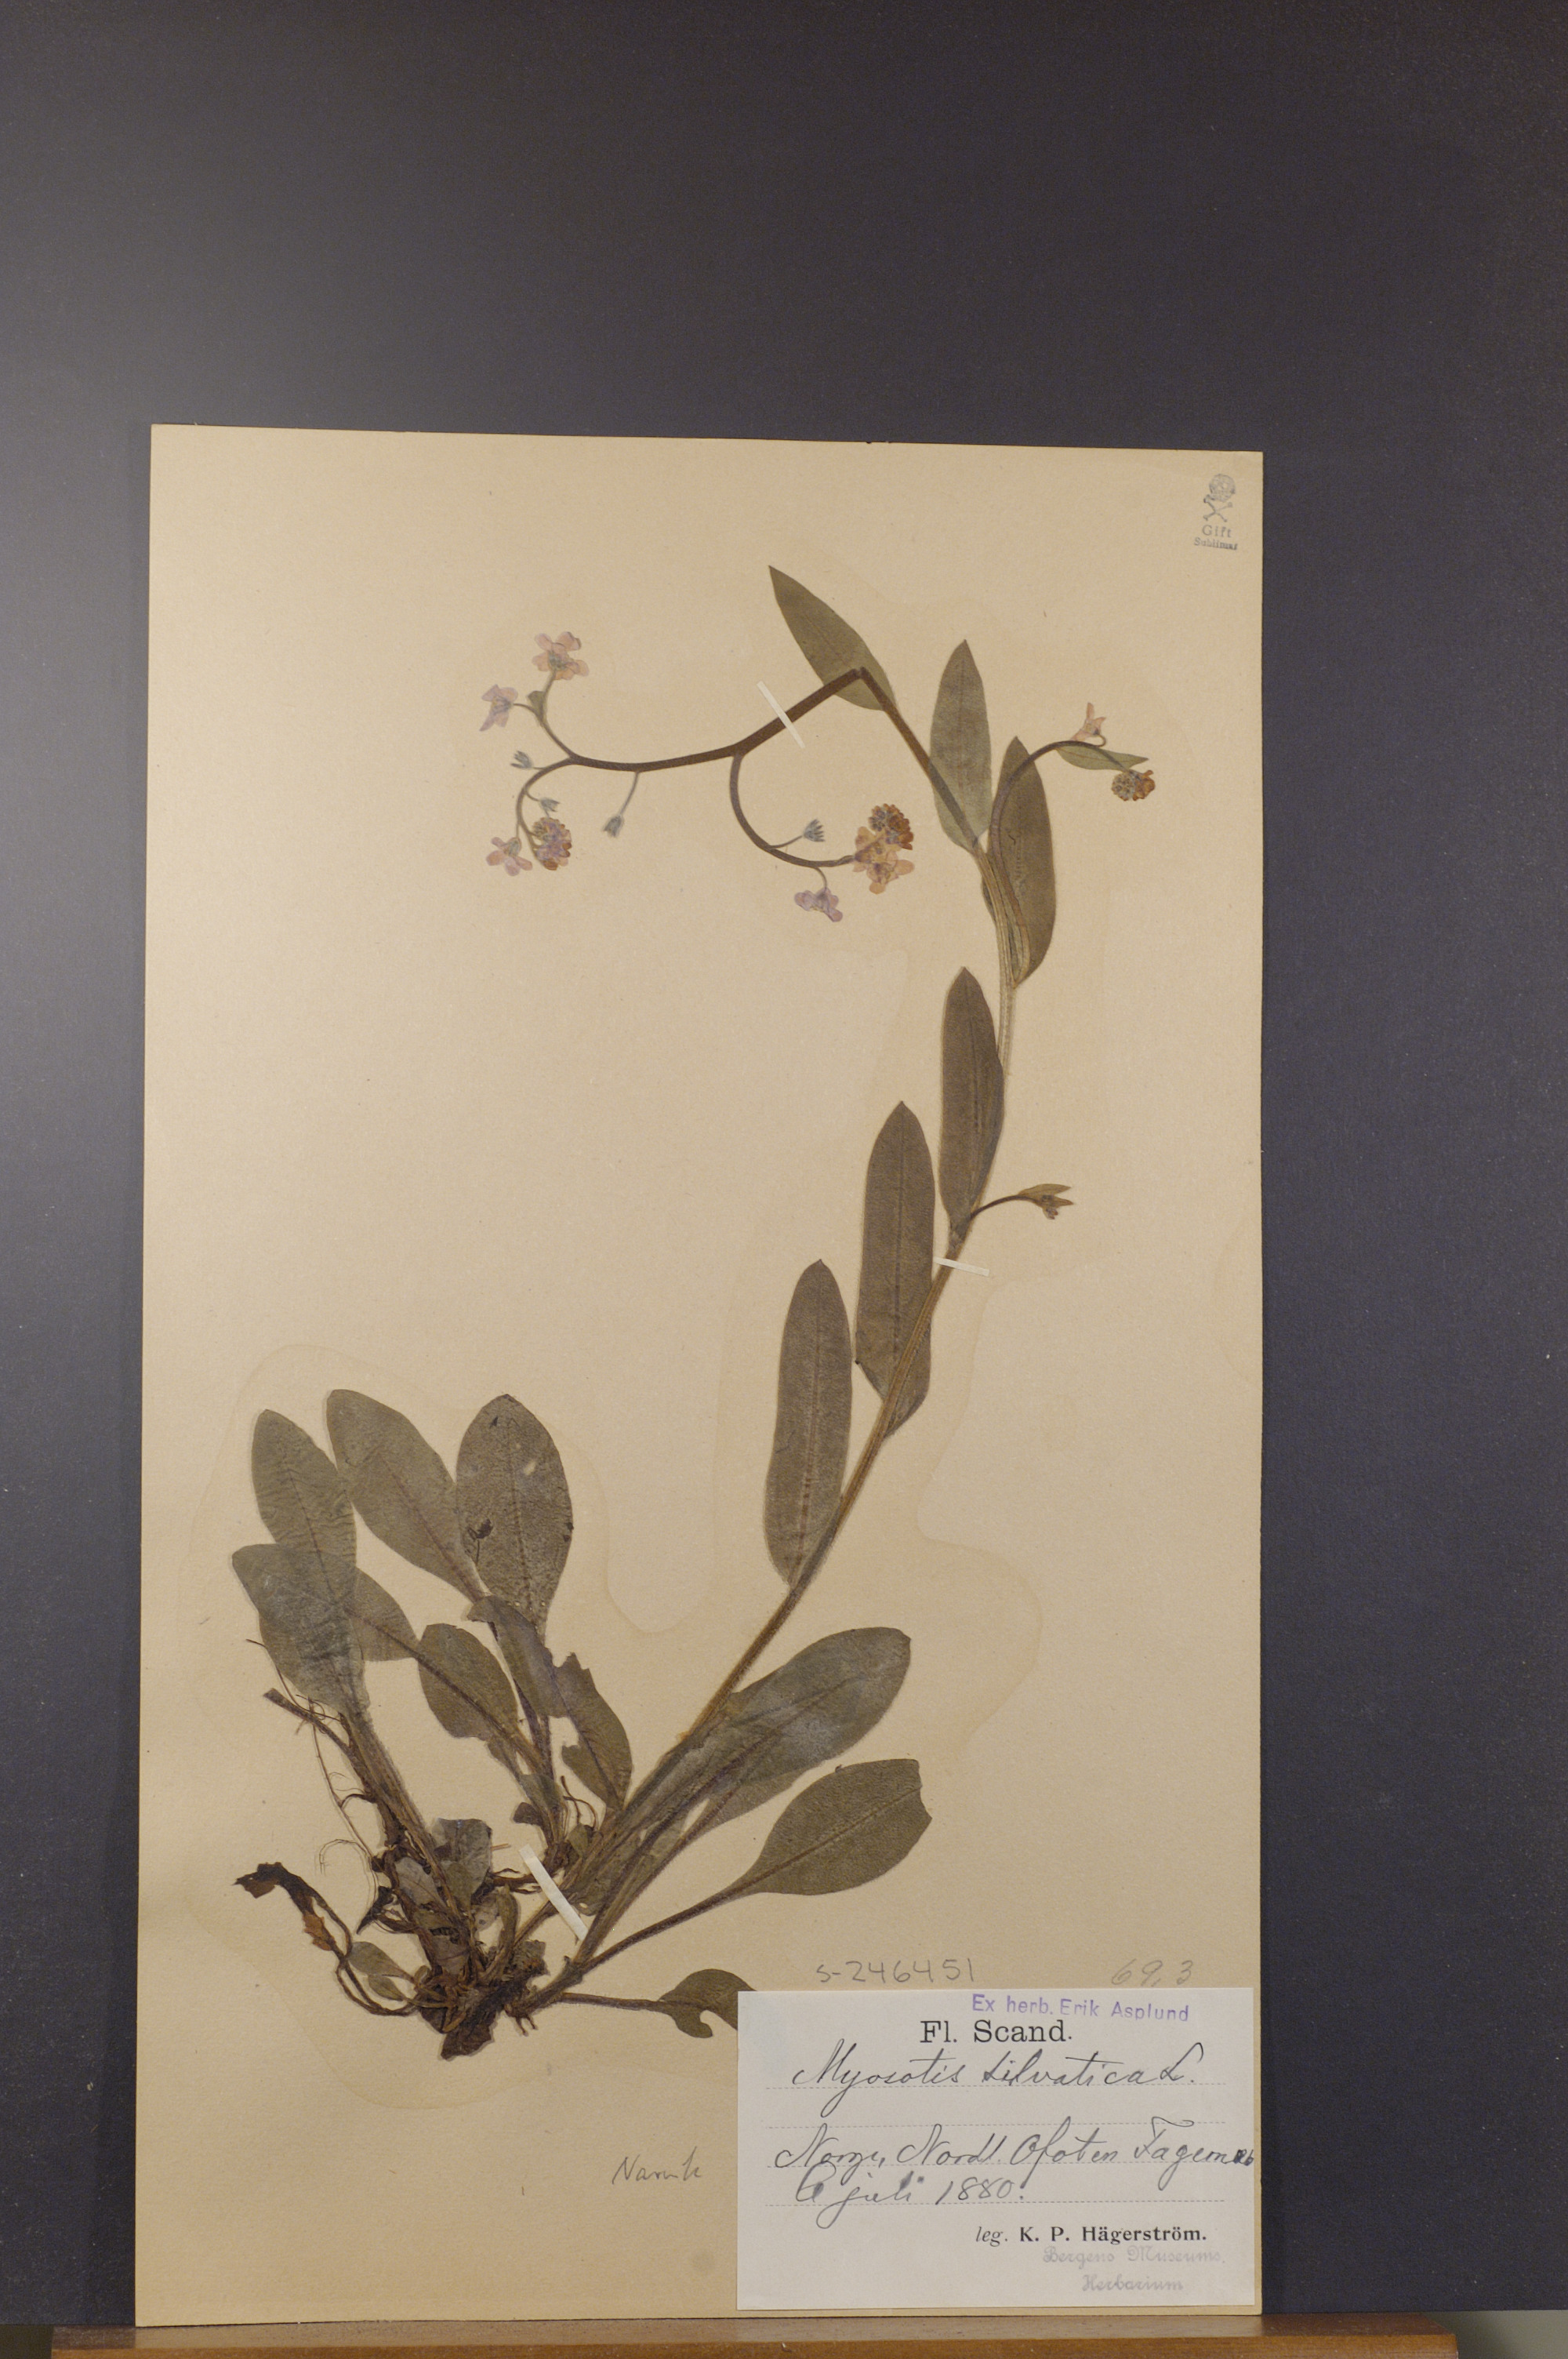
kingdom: Plantae
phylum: Tracheophyta
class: Magnoliopsida
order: Boraginales
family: Boraginaceae
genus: Myosotis
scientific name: Myosotis decumbens
